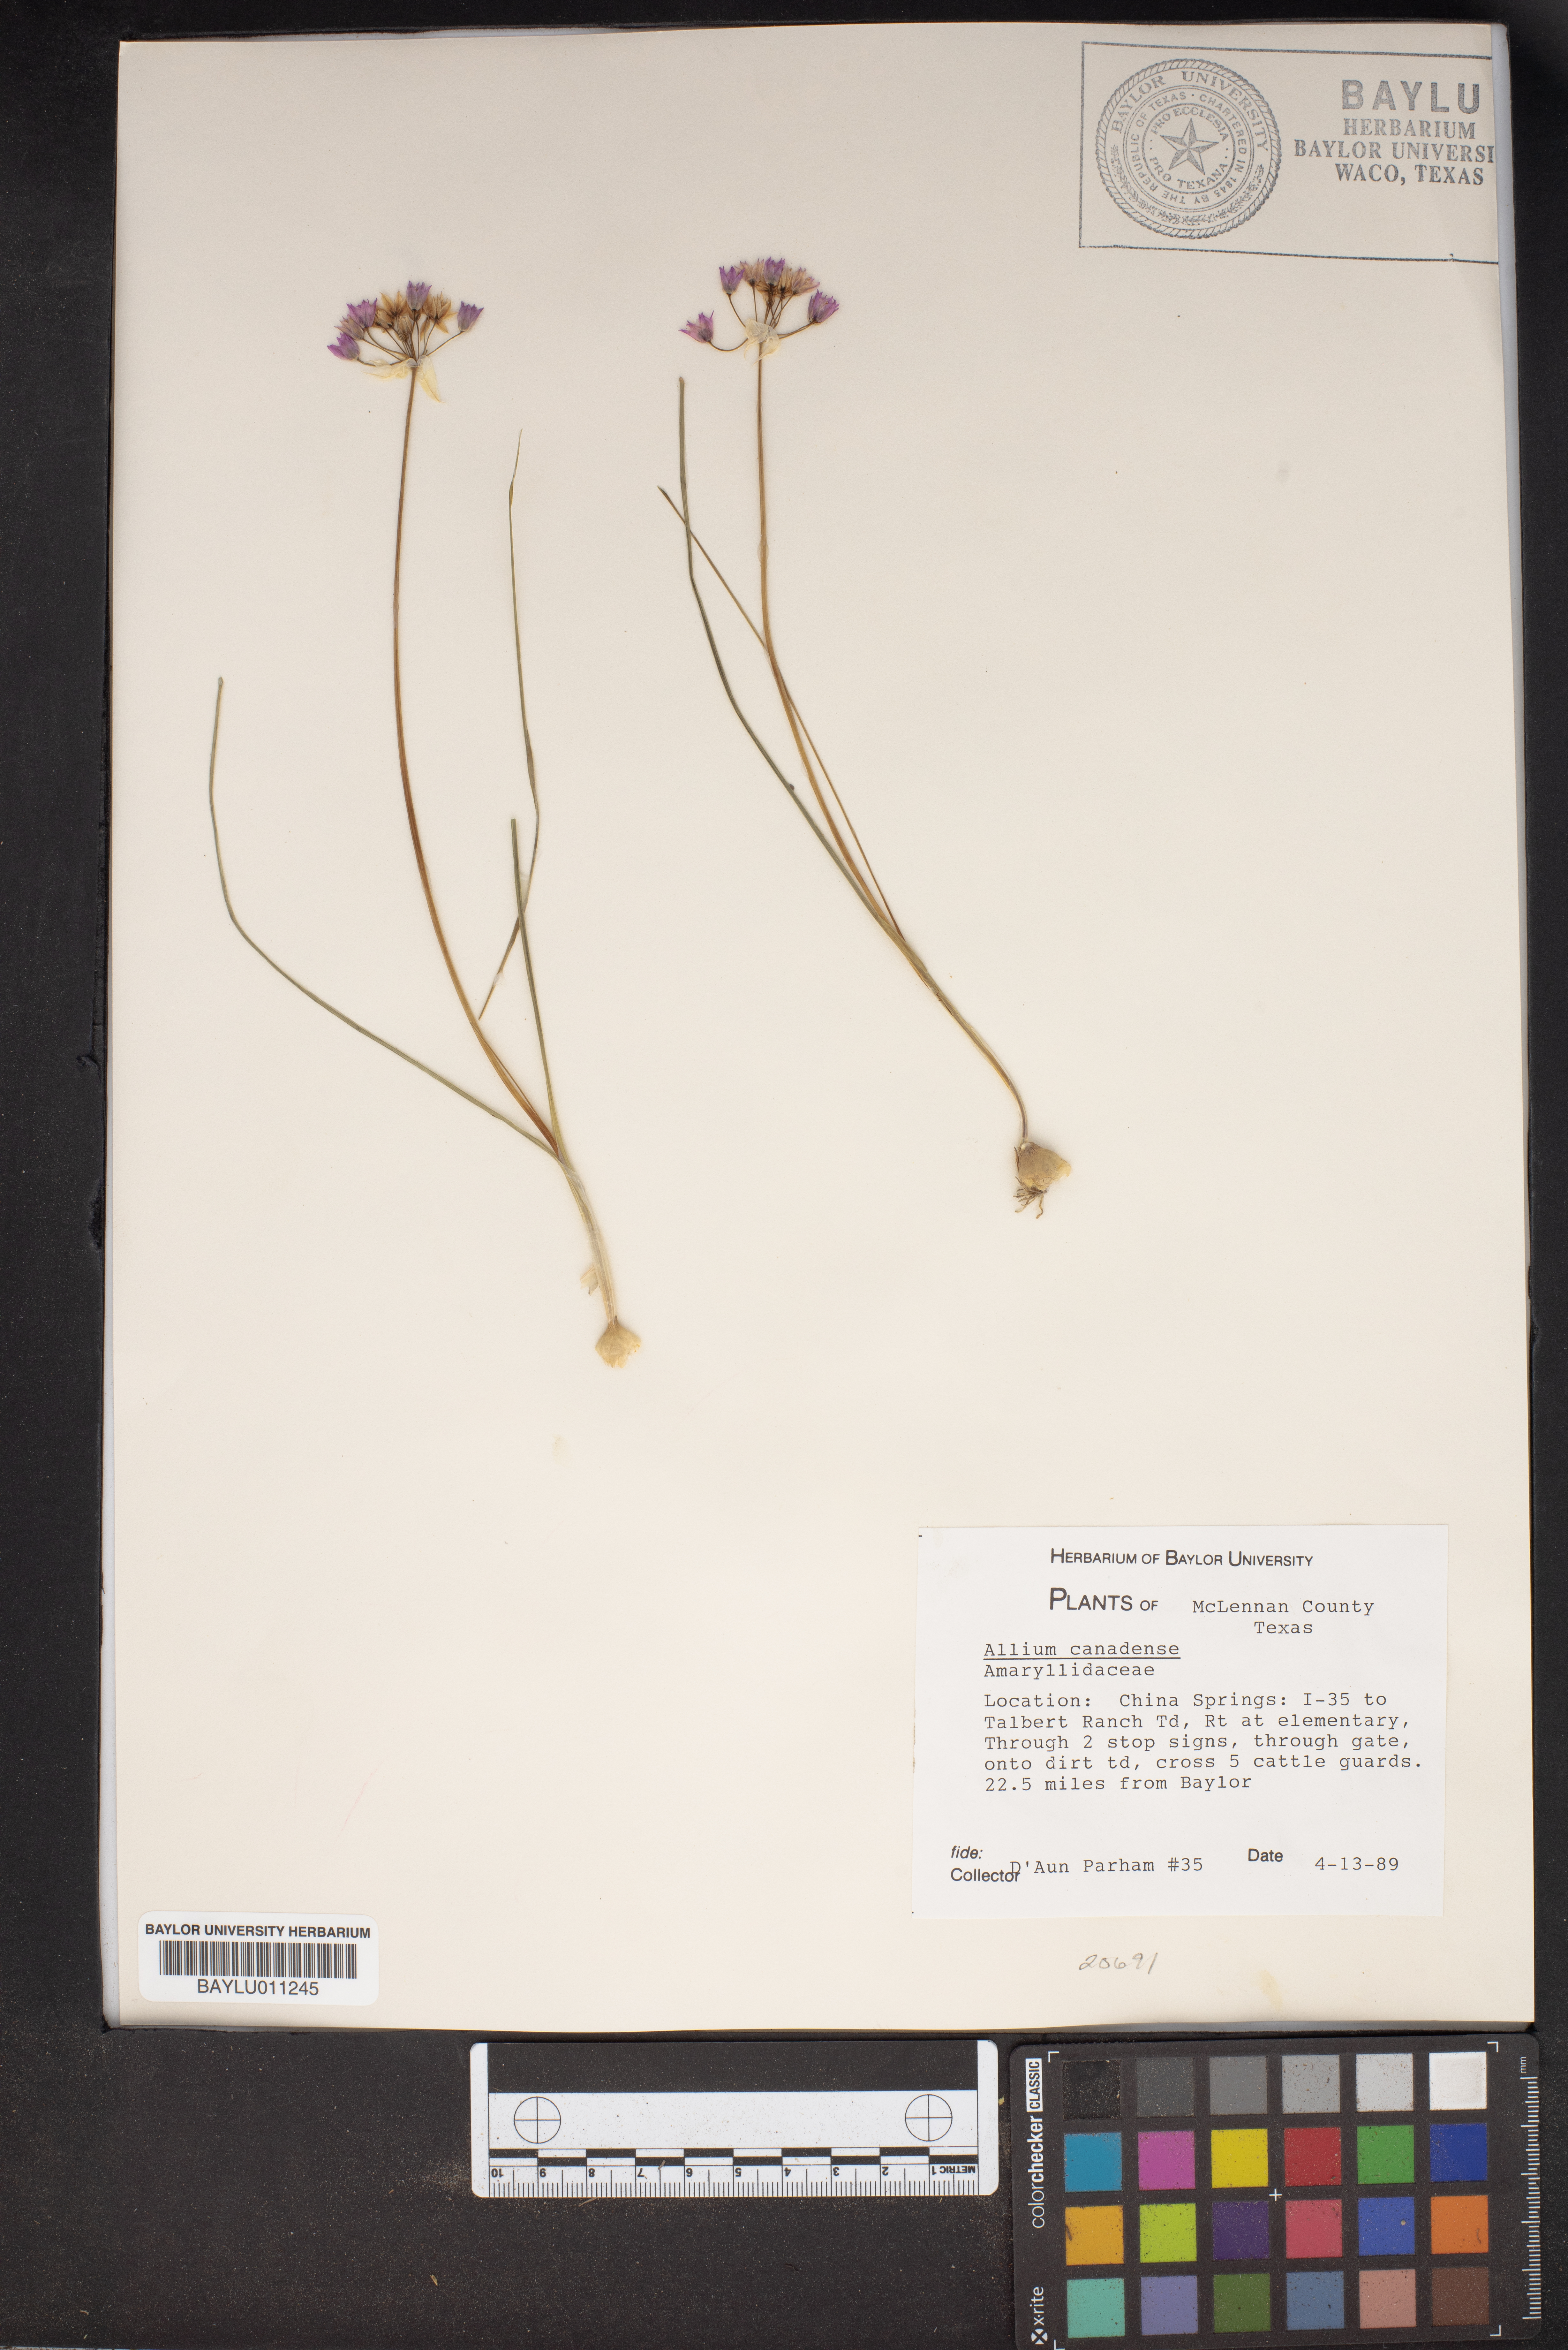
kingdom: Plantae
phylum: Tracheophyta
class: Liliopsida
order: Asparagales
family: Amaryllidaceae
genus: Allium
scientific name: Allium canadense
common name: Meadow garlic
